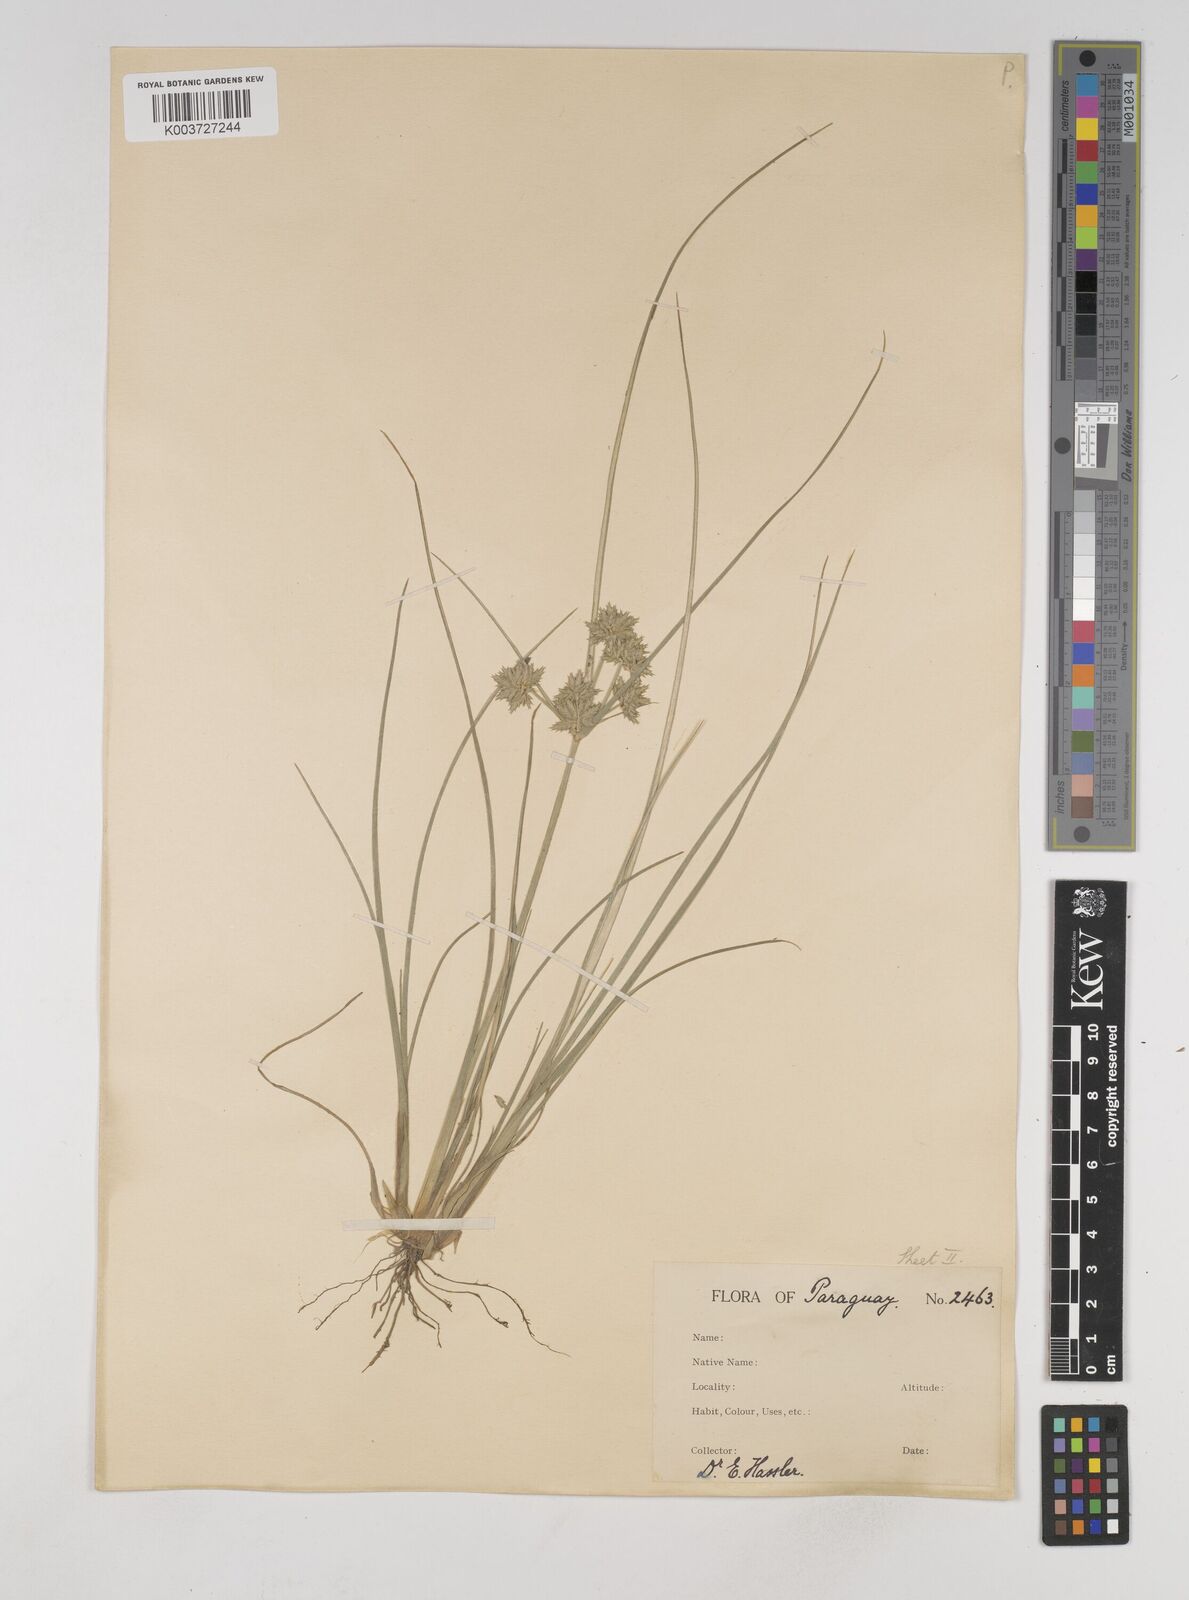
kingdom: Plantae
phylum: Tracheophyta
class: Liliopsida
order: Poales
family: Cyperaceae
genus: Cyperus
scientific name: Cyperus elegans
